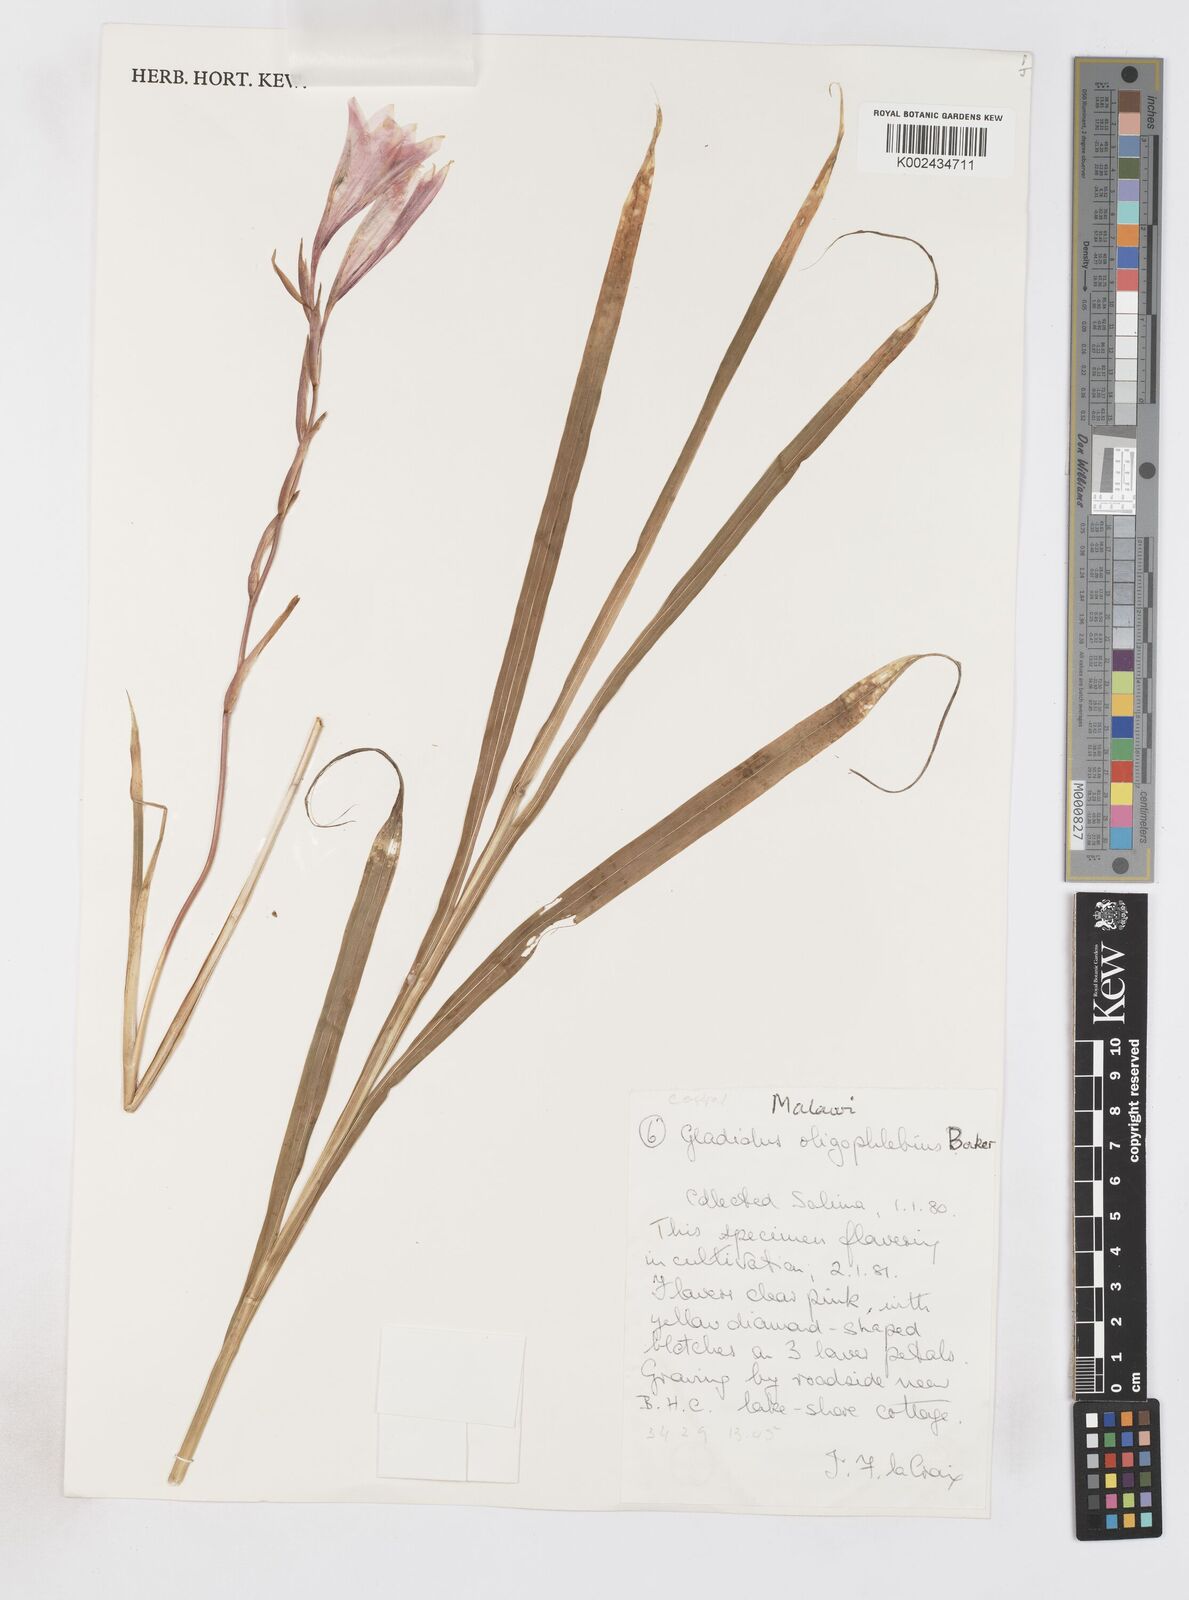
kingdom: Plantae
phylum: Tracheophyta
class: Liliopsida
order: Asparagales
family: Iridaceae
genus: Gladiolus
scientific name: Gladiolus oligophlebius
